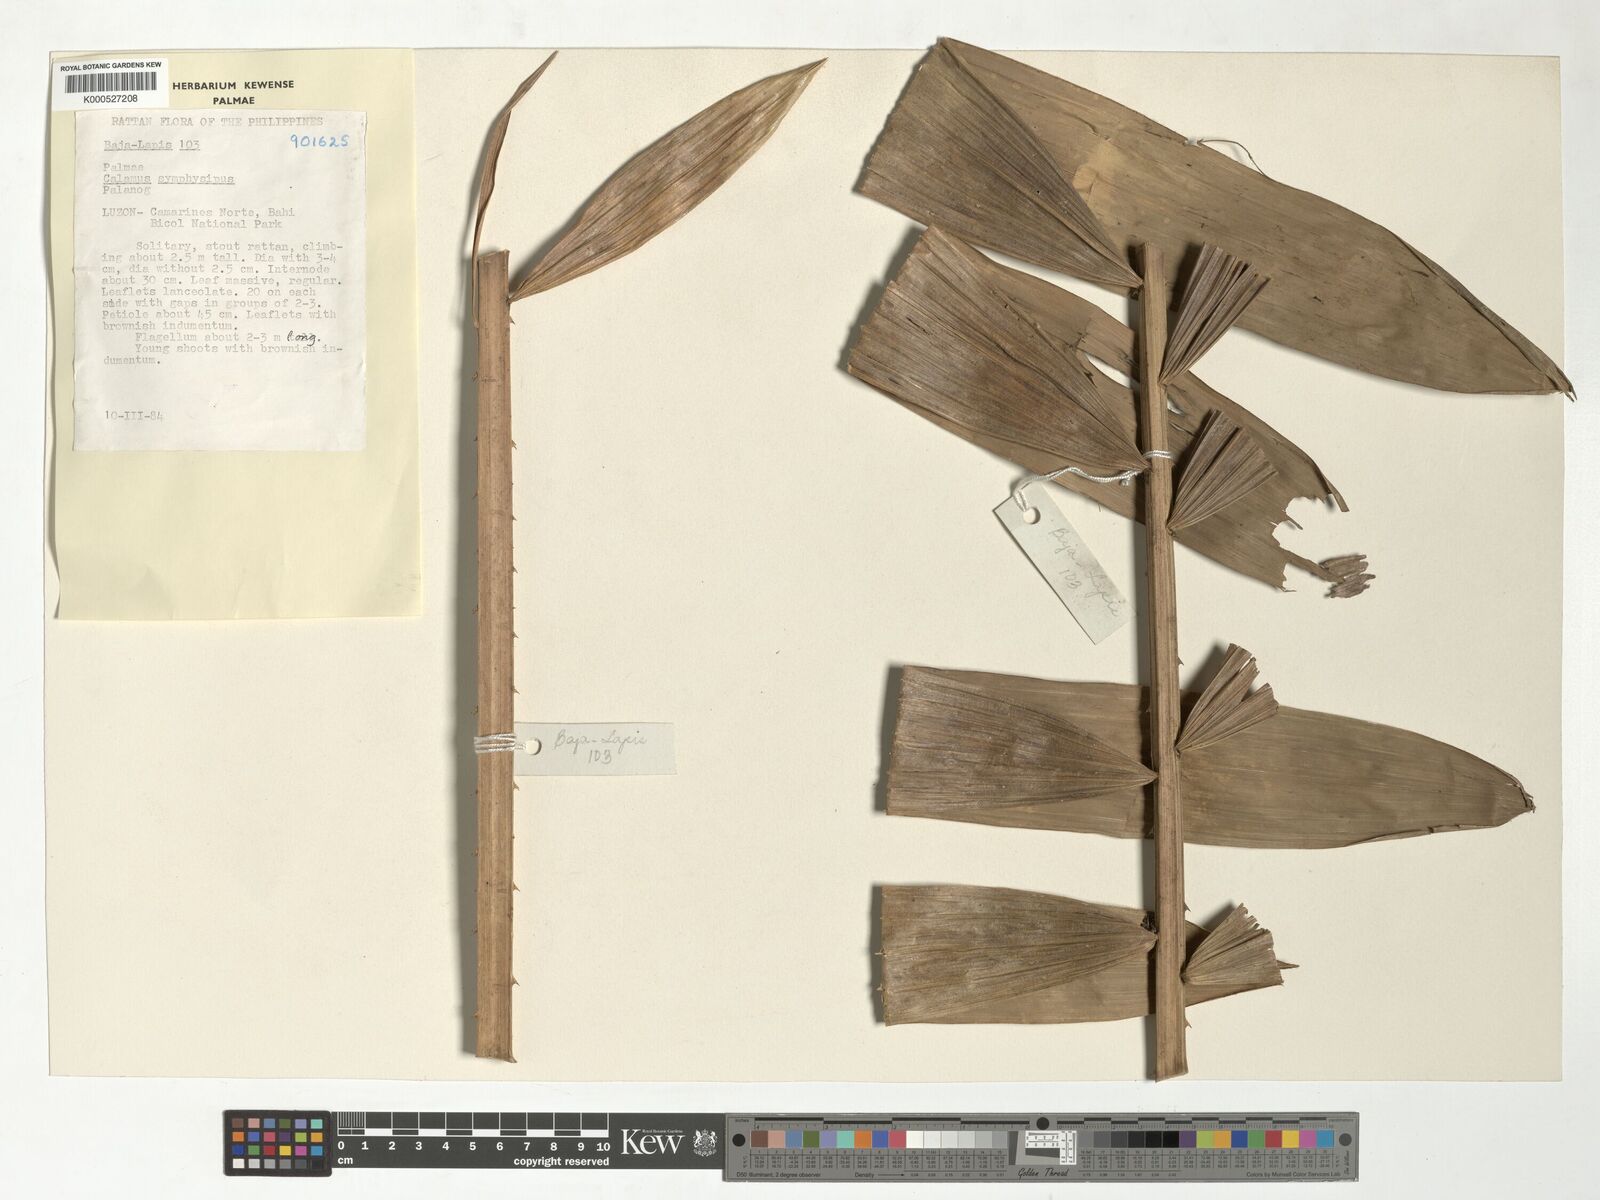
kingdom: Plantae
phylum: Tracheophyta
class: Liliopsida
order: Arecales
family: Arecaceae
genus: Calamus
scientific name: Calamus symphysipus
